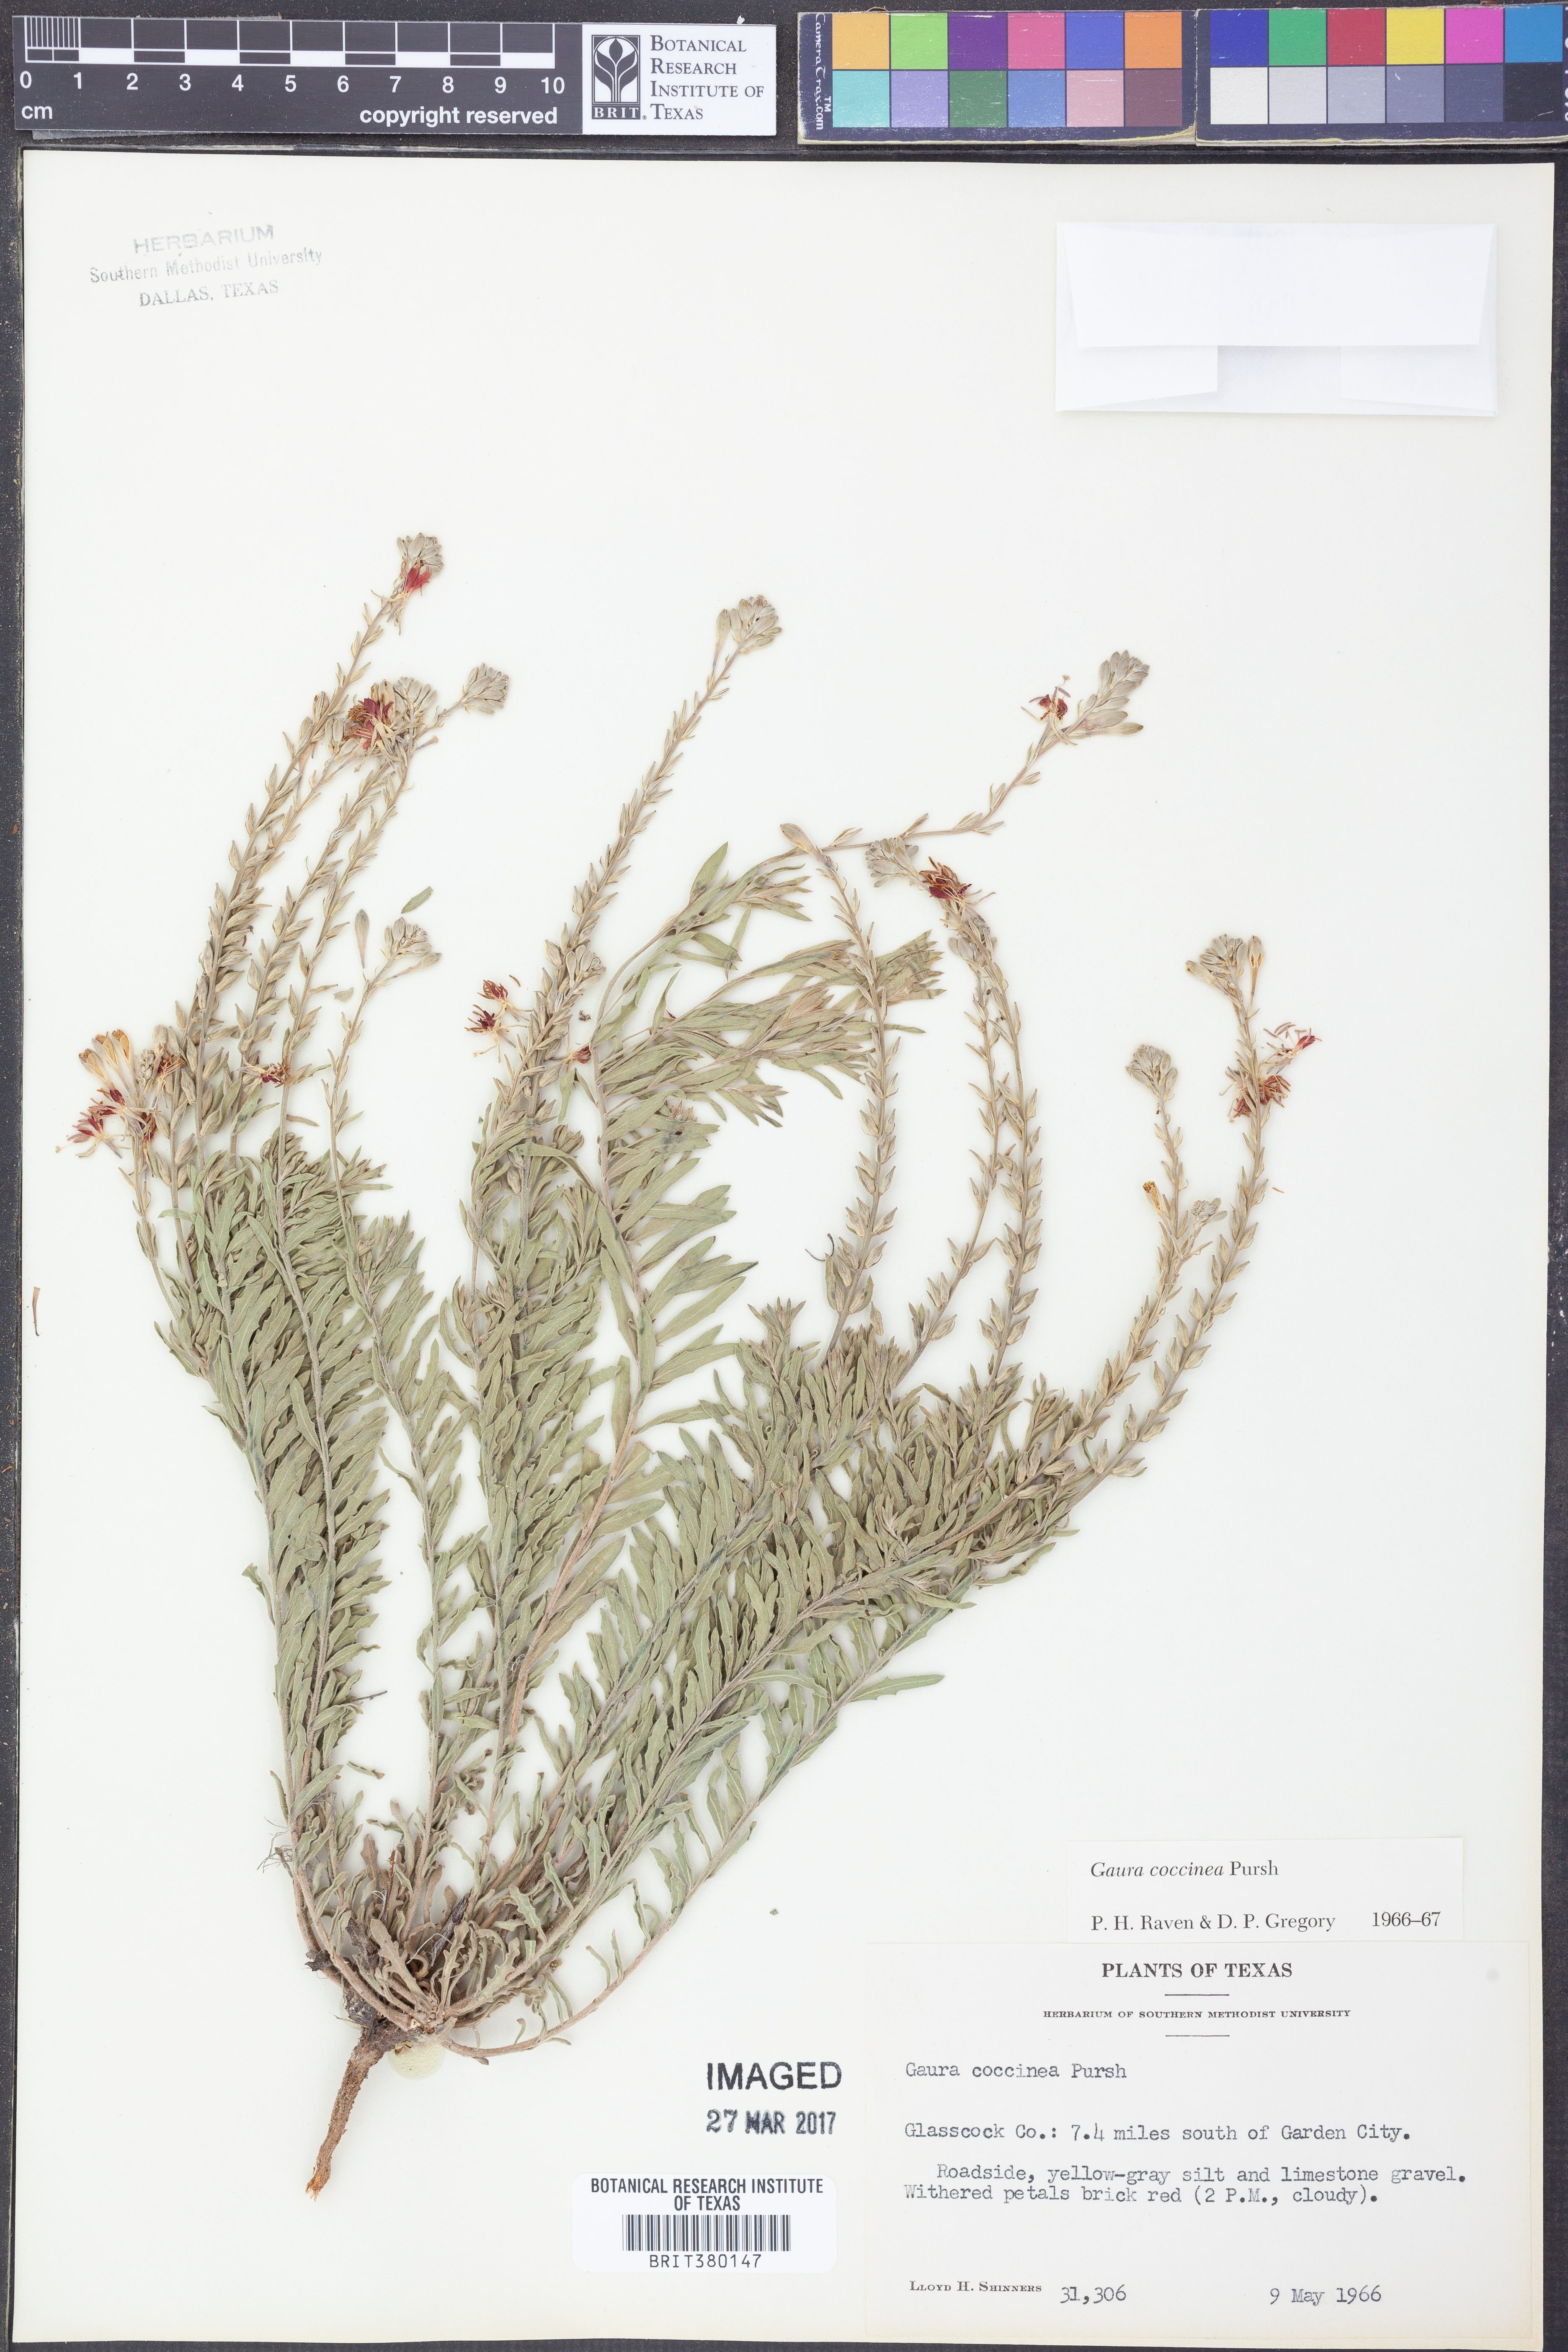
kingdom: Plantae
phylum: Tracheophyta
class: Magnoliopsida
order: Myrtales
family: Onagraceae
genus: Oenothera
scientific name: Oenothera suffrutescens
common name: Scarlet beeblossom
